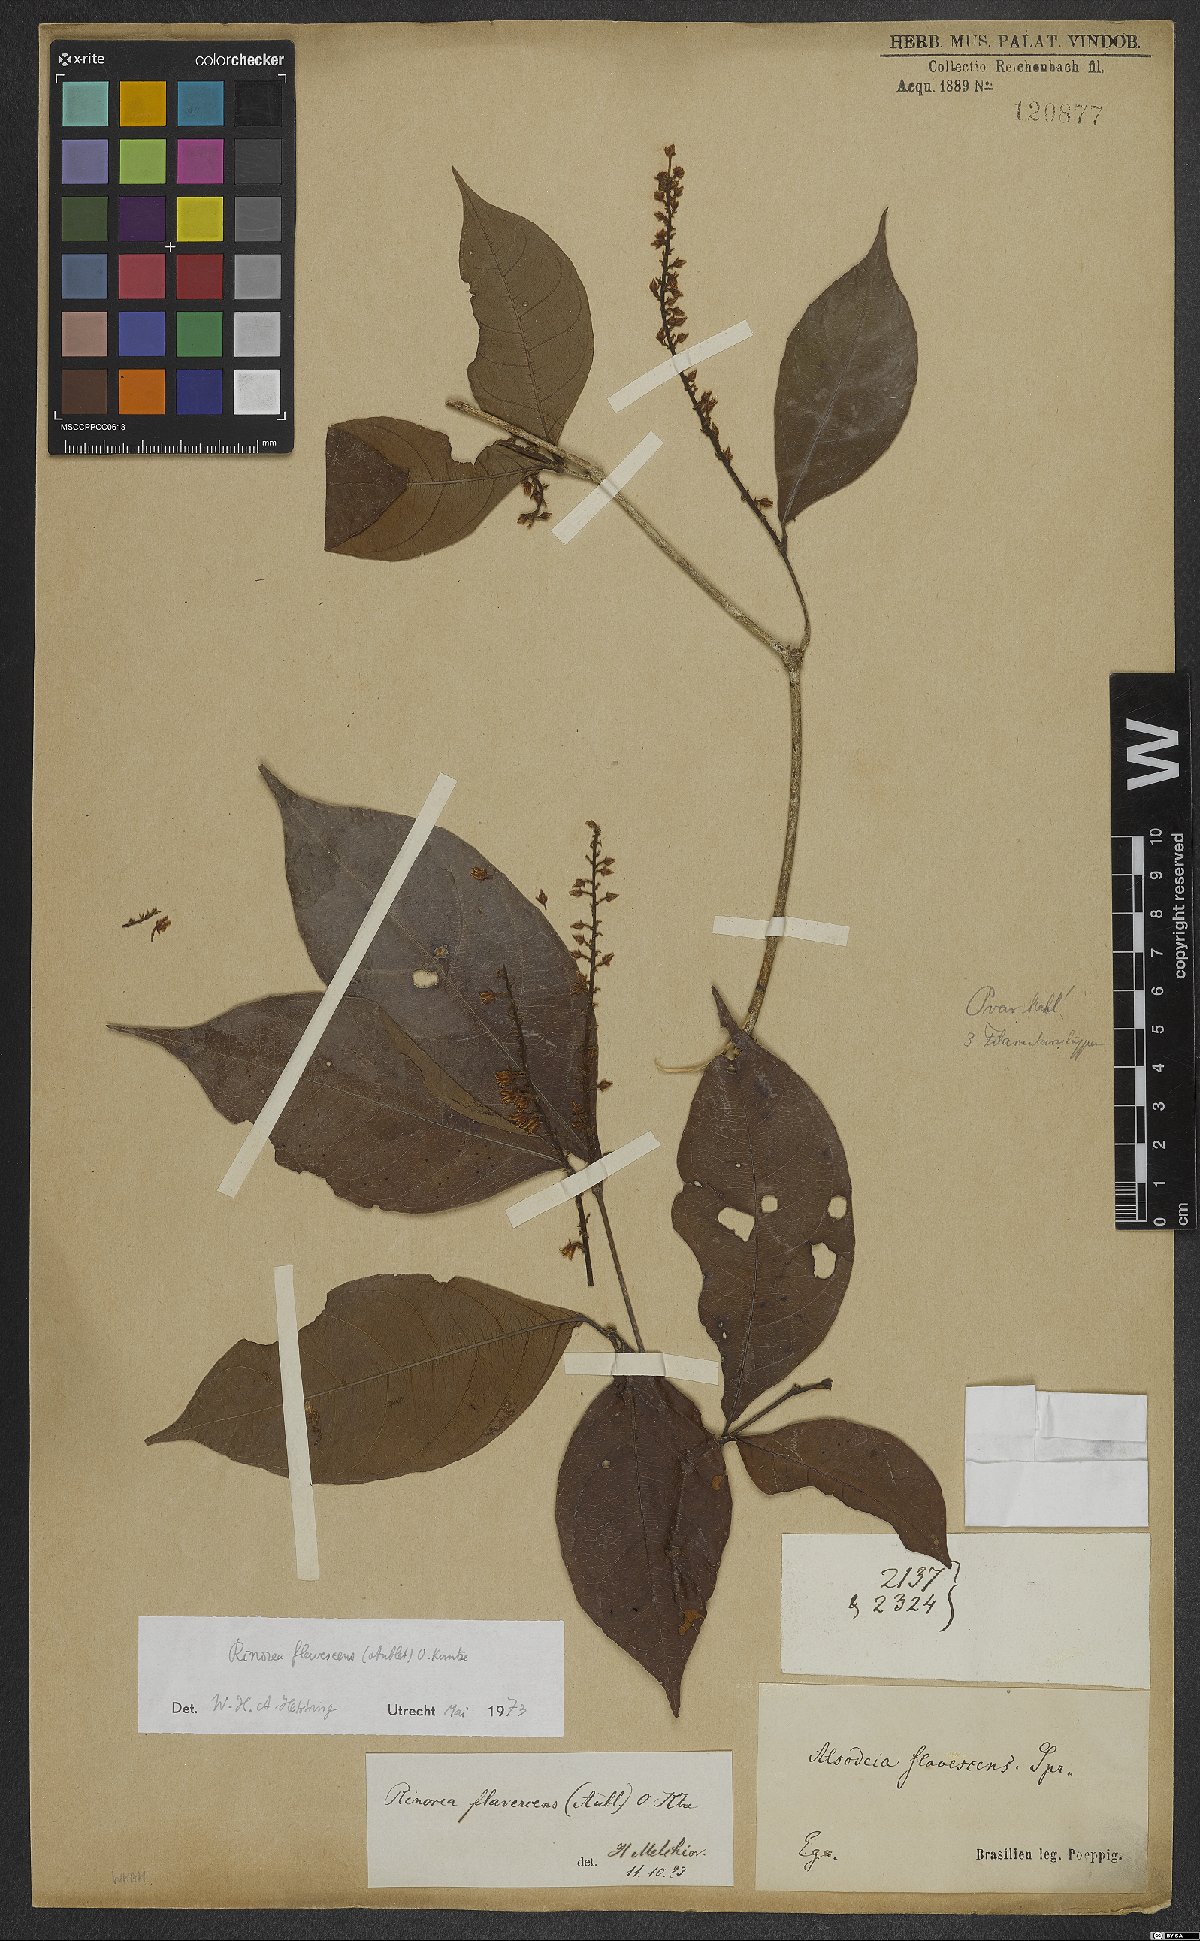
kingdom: Plantae
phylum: Tracheophyta
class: Magnoliopsida
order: Malpighiales
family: Violaceae
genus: Rinorea
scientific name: Rinorea flavescens
